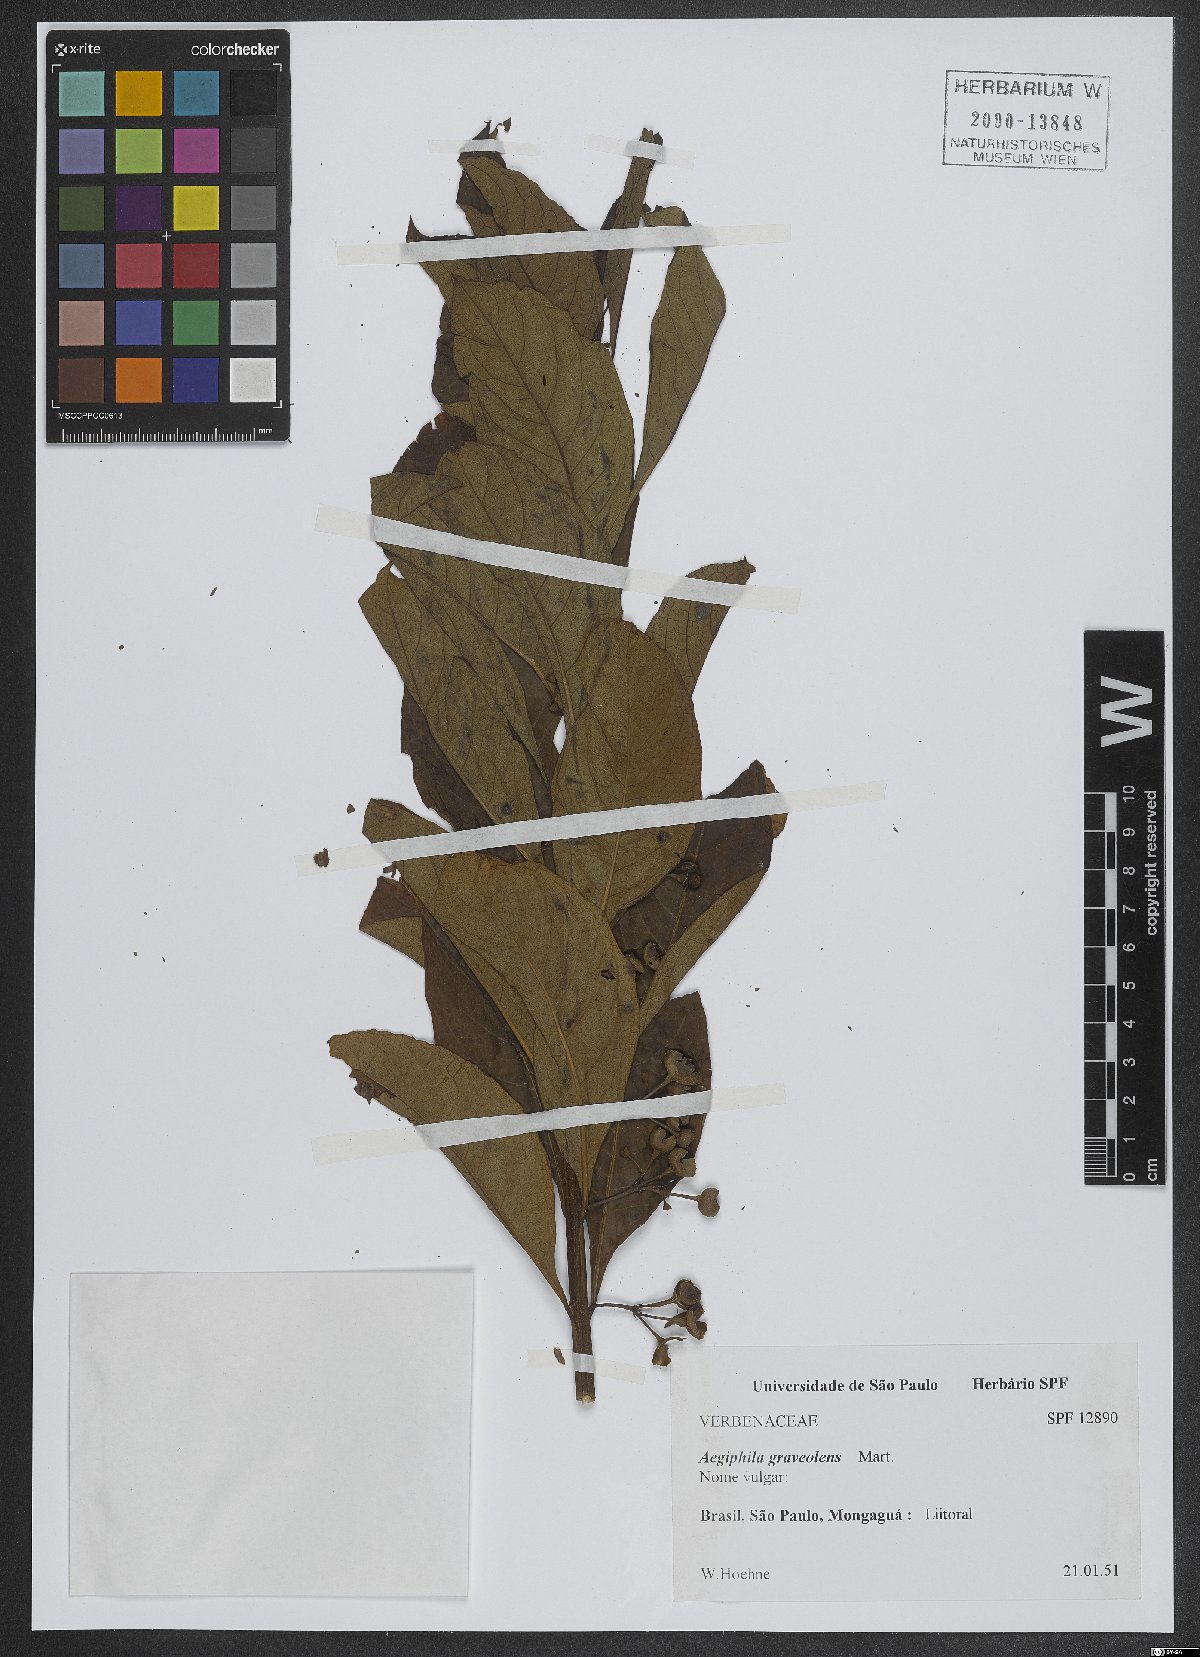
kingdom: Plantae
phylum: Tracheophyta
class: Magnoliopsida
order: Lamiales
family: Lamiaceae
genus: Aegiphila
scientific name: Aegiphila graveolens
